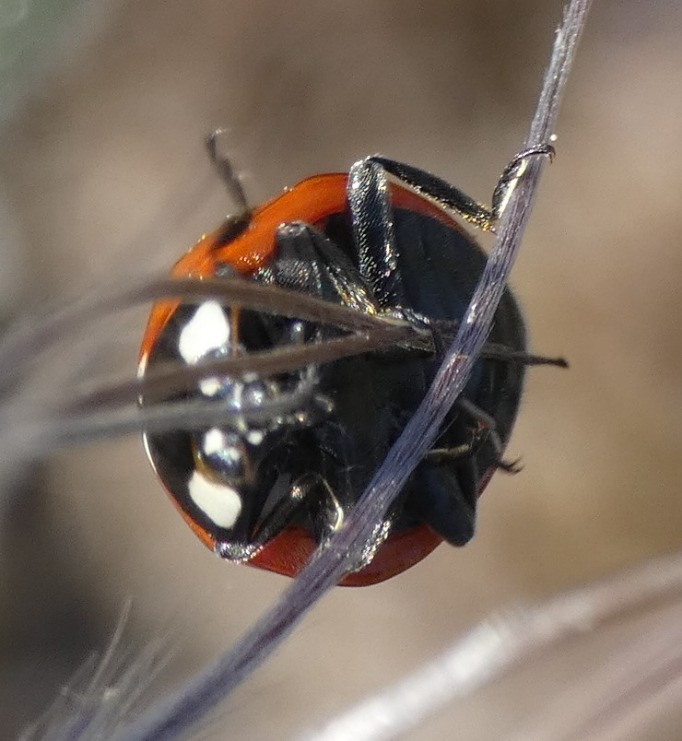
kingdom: Animalia
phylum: Arthropoda
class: Insecta
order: Coleoptera
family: Coccinellidae
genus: Coccinella
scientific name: Coccinella septempunctata
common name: Syvplettet mariehøne
